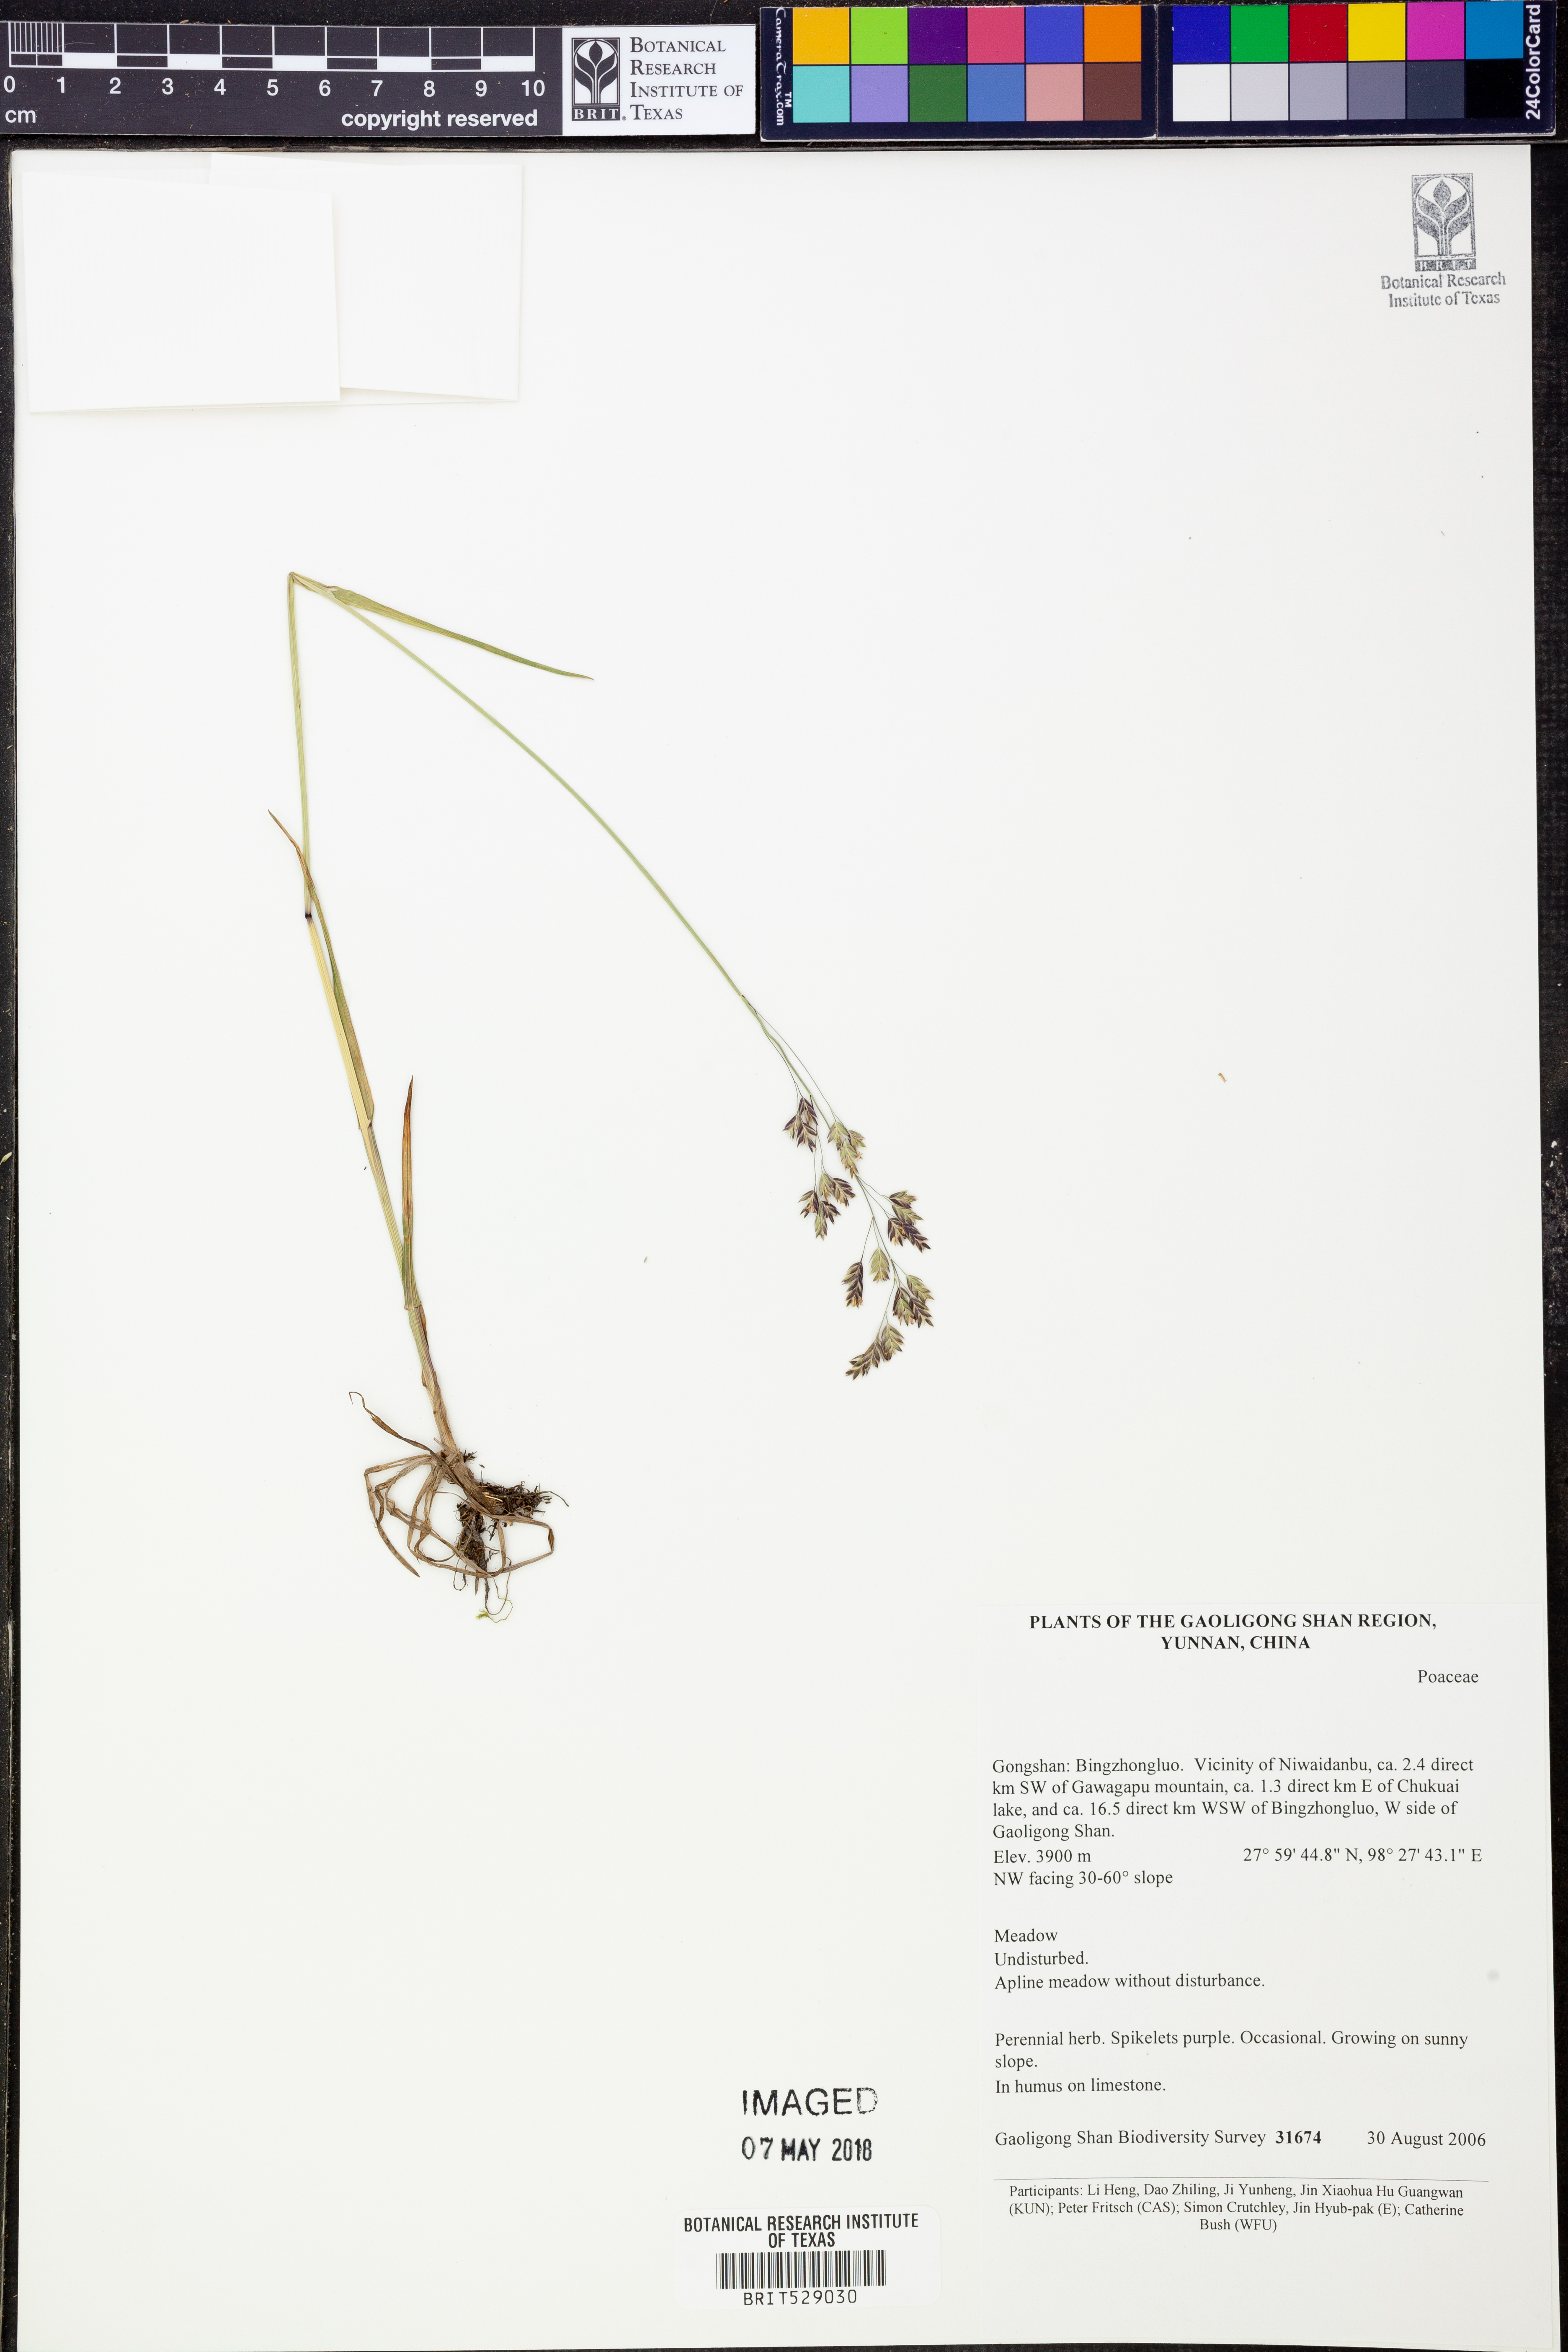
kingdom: Plantae
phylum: Tracheophyta
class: Liliopsida
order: Poales
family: Poaceae
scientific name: Poaceae
